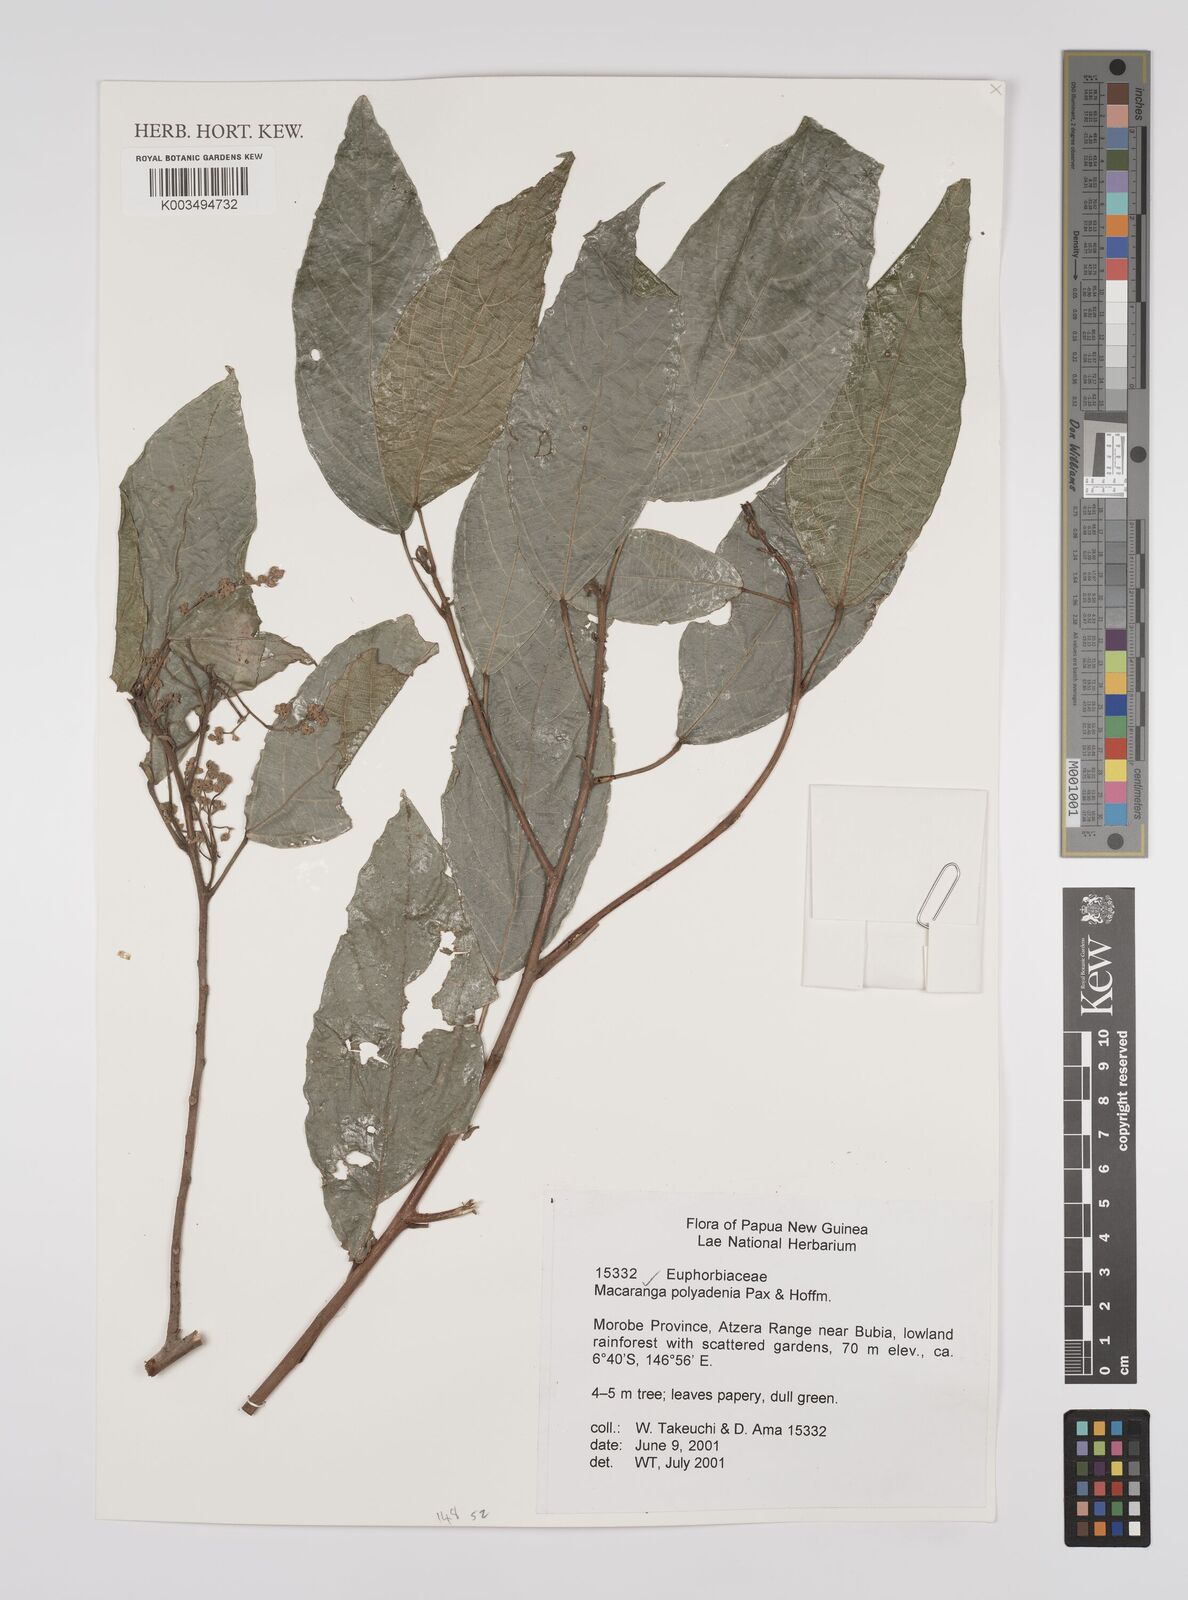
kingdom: Plantae
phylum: Tracheophyta
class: Magnoliopsida
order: Malpighiales
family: Euphorbiaceae
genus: Macaranga
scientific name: Macaranga polyadenia
